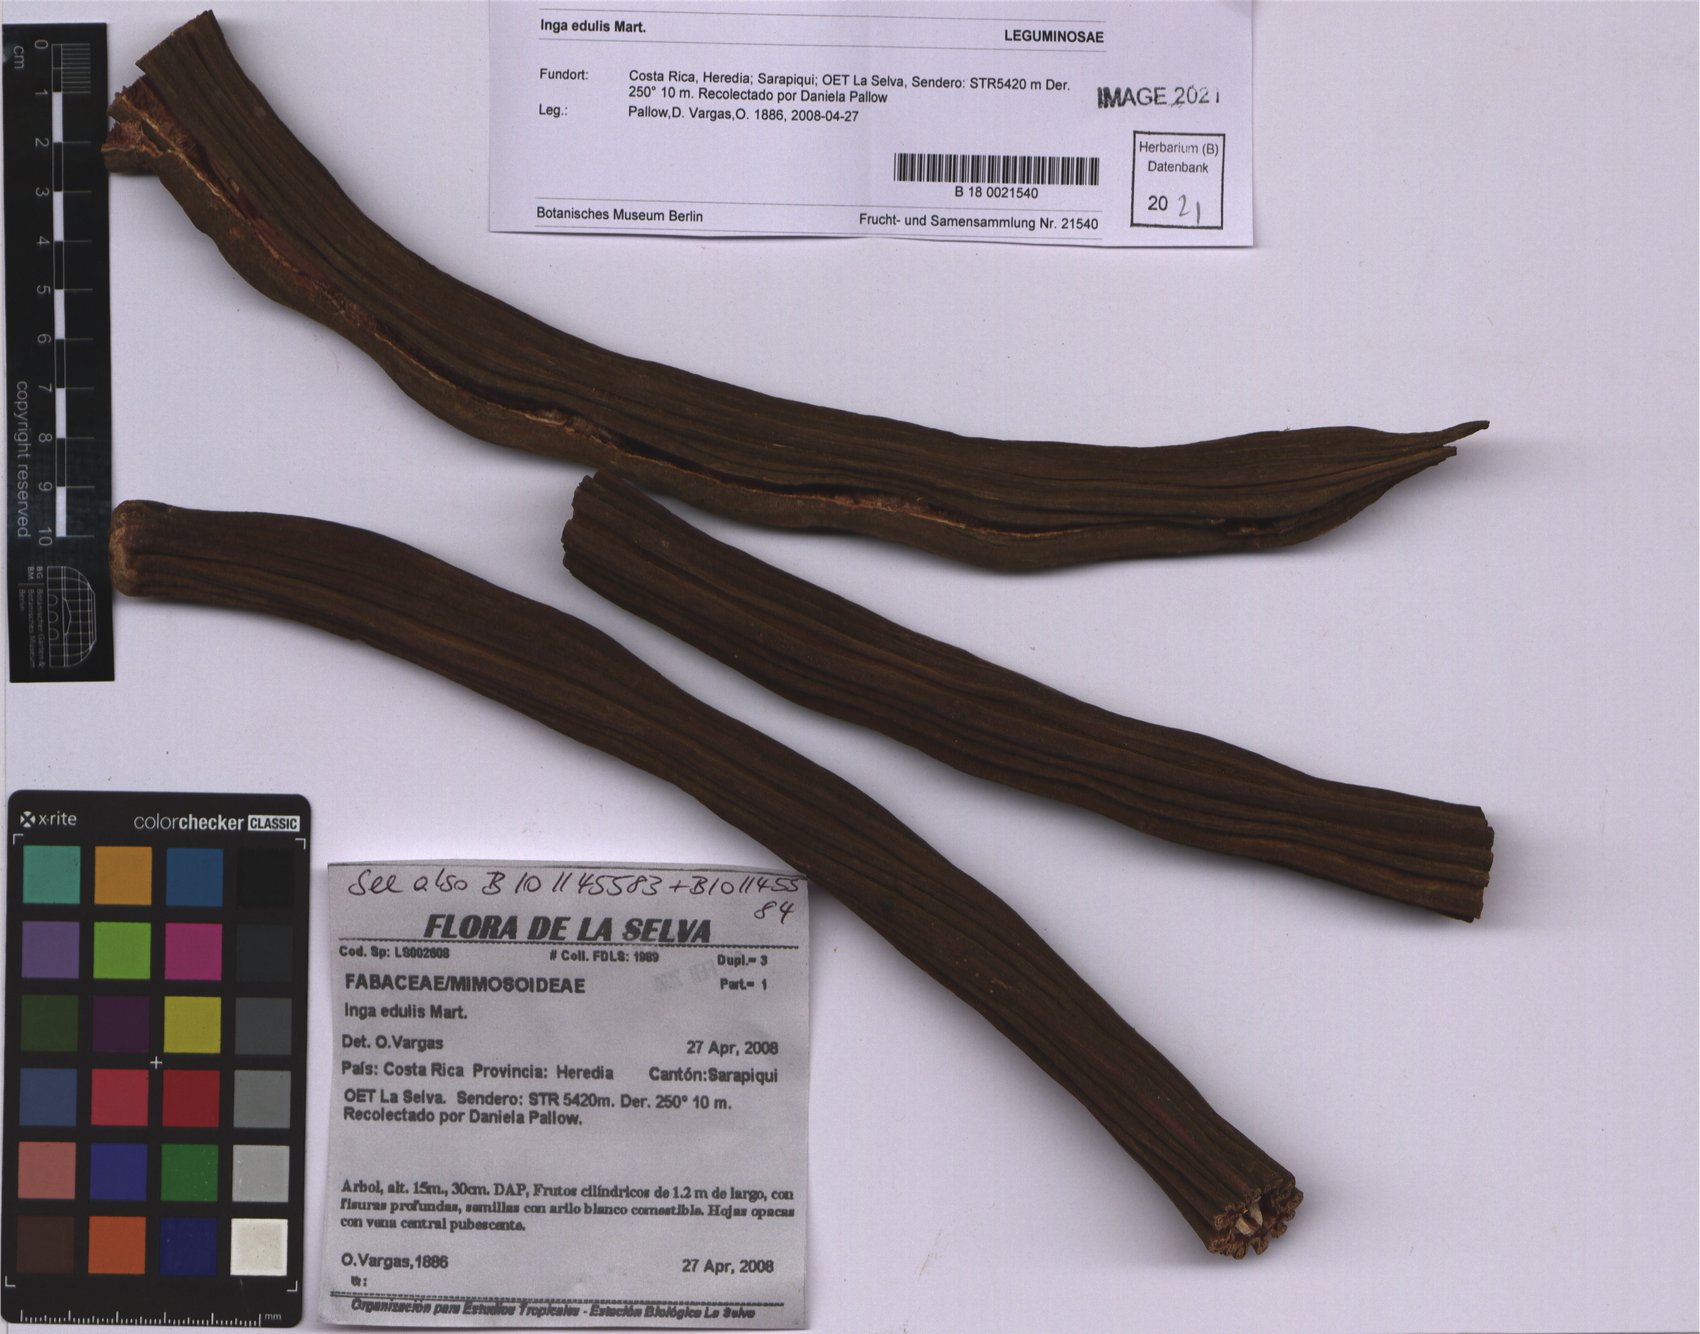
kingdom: Plantae
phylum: Tracheophyta
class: Magnoliopsida
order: Fabales
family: Fabaceae
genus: Inga
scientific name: Inga edulis
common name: Ice cream bean
